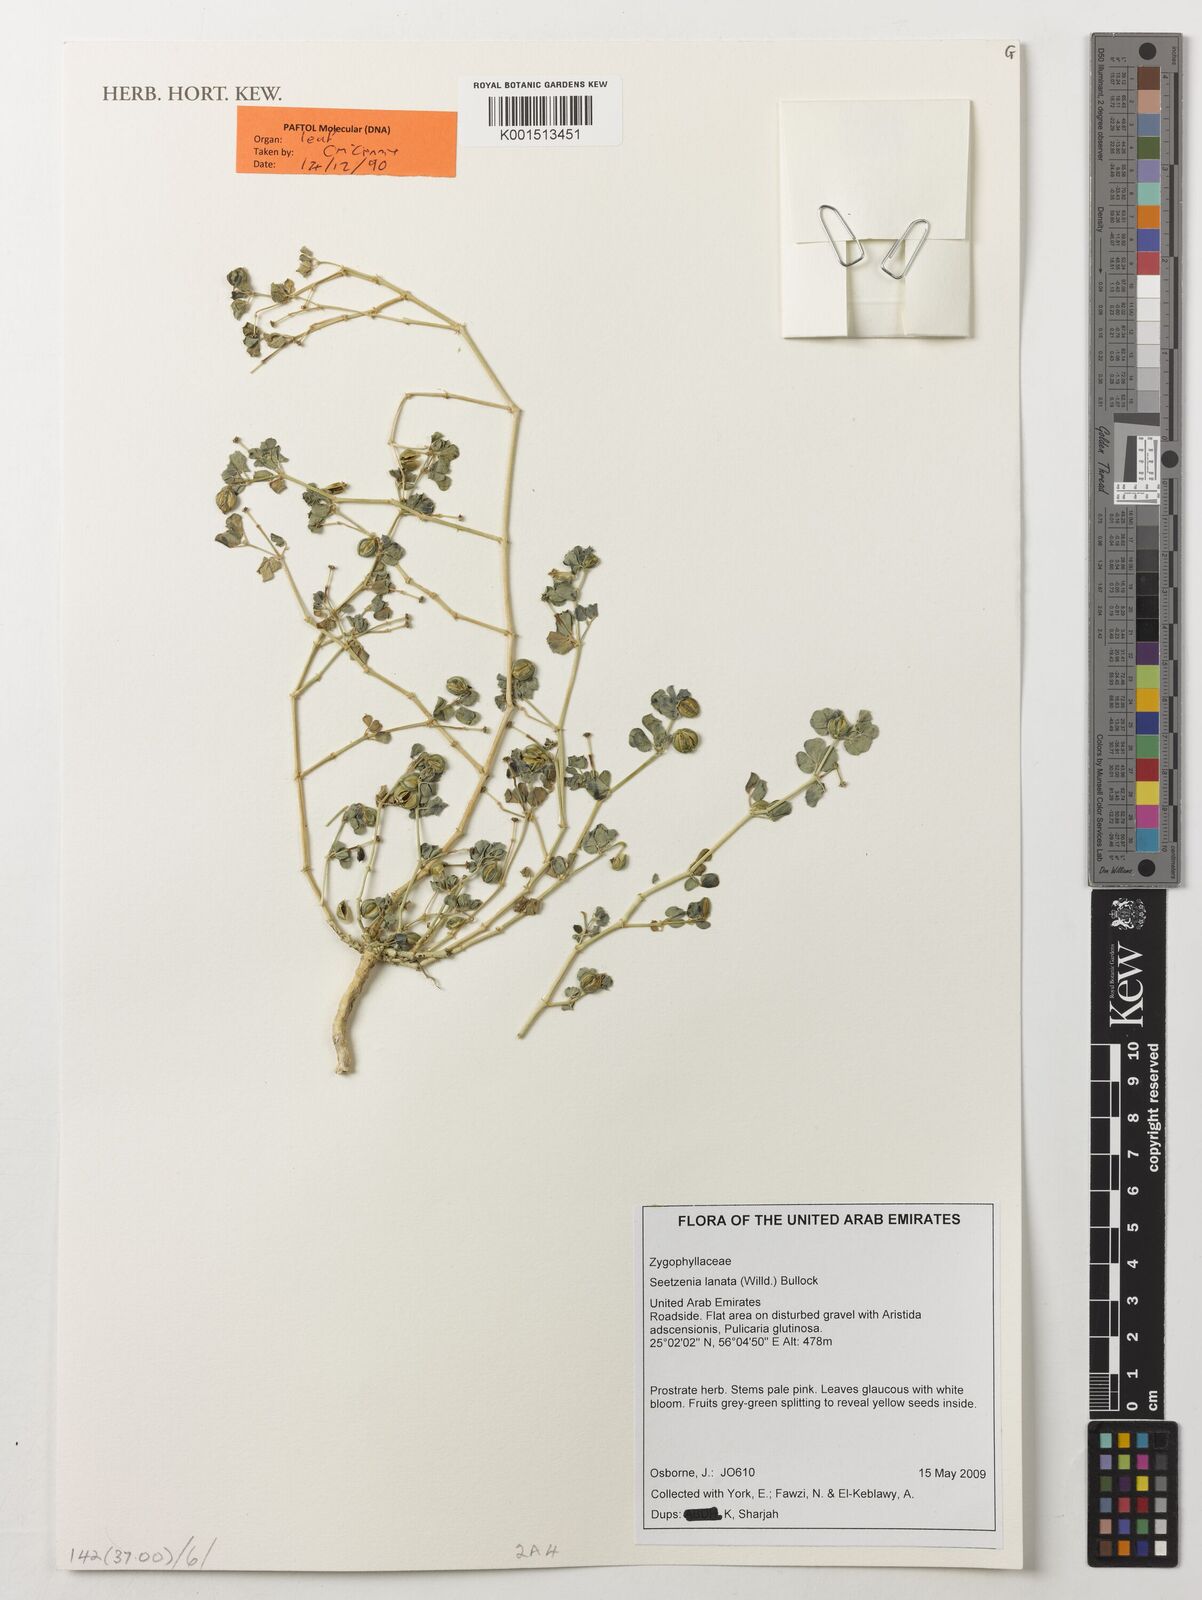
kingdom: Plantae
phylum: Tracheophyta
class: Magnoliopsida
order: Zygophyllales
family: Zygophyllaceae
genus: Seetzenia
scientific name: Seetzenia lanata
